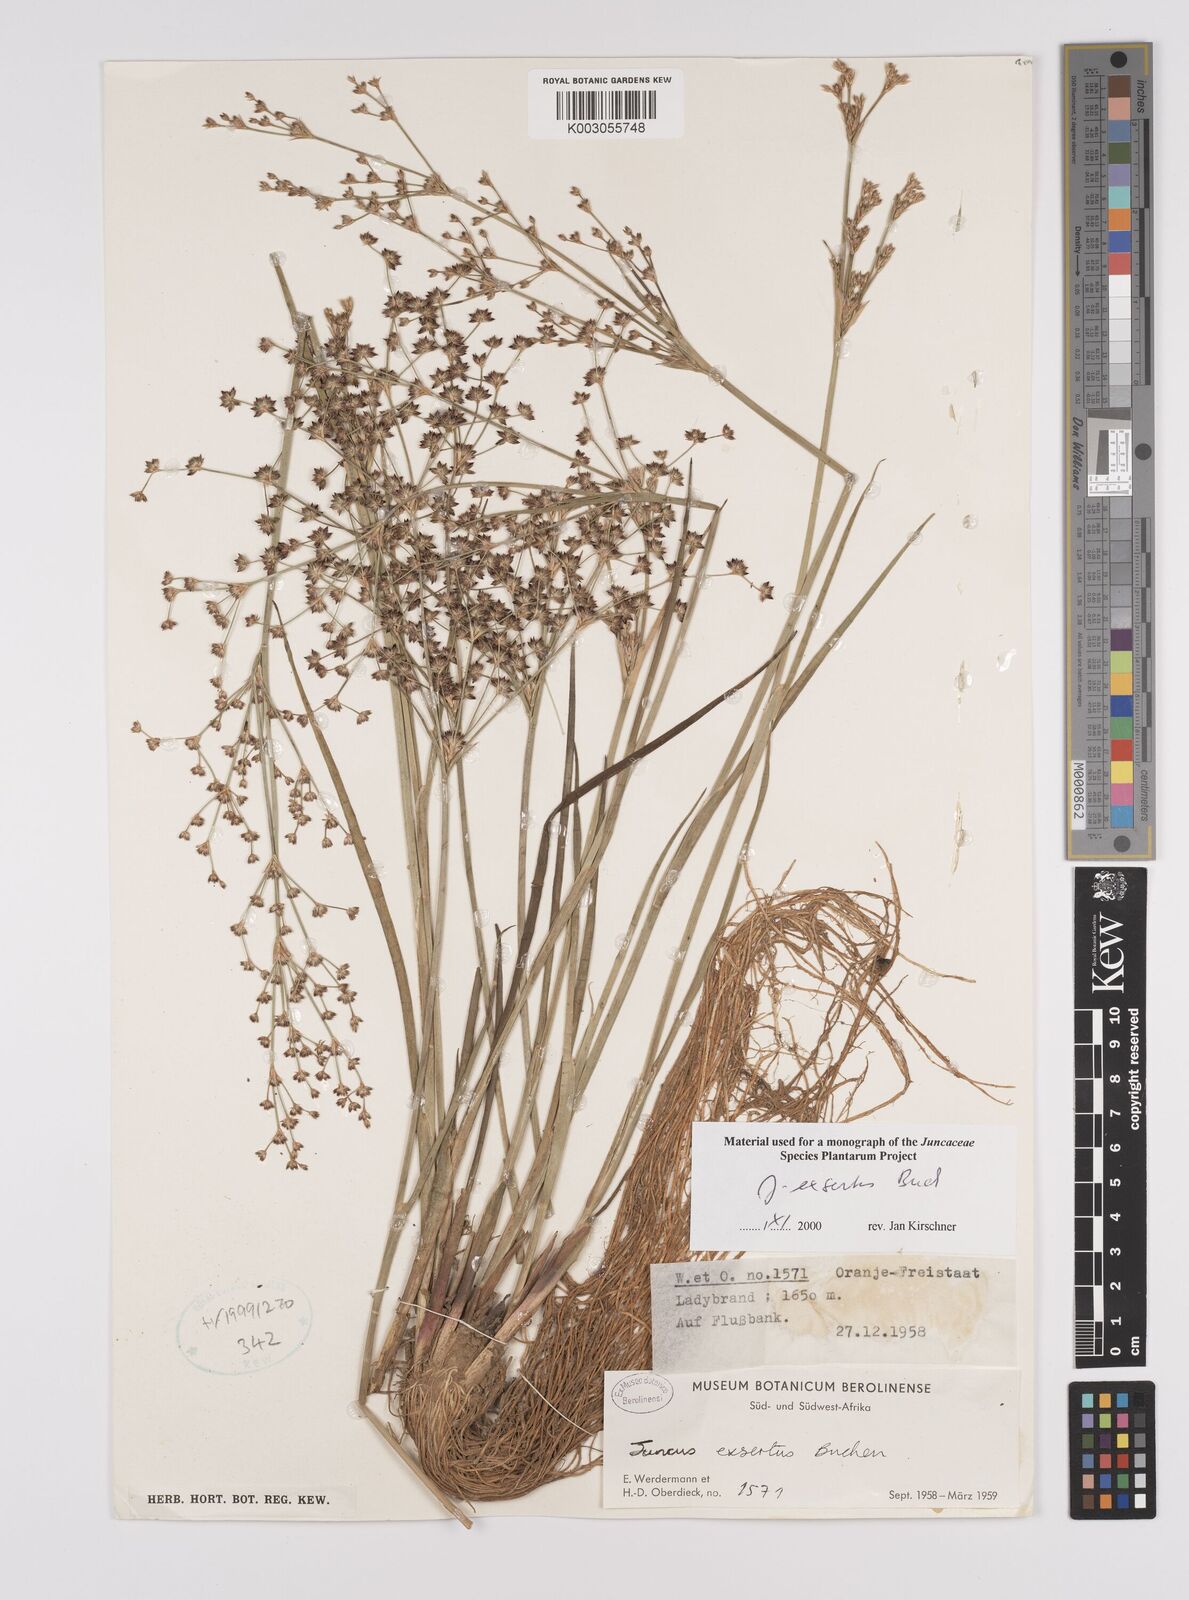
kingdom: Plantae
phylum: Tracheophyta
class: Liliopsida
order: Poales
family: Juncaceae
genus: Juncus
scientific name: Juncus exsertus
